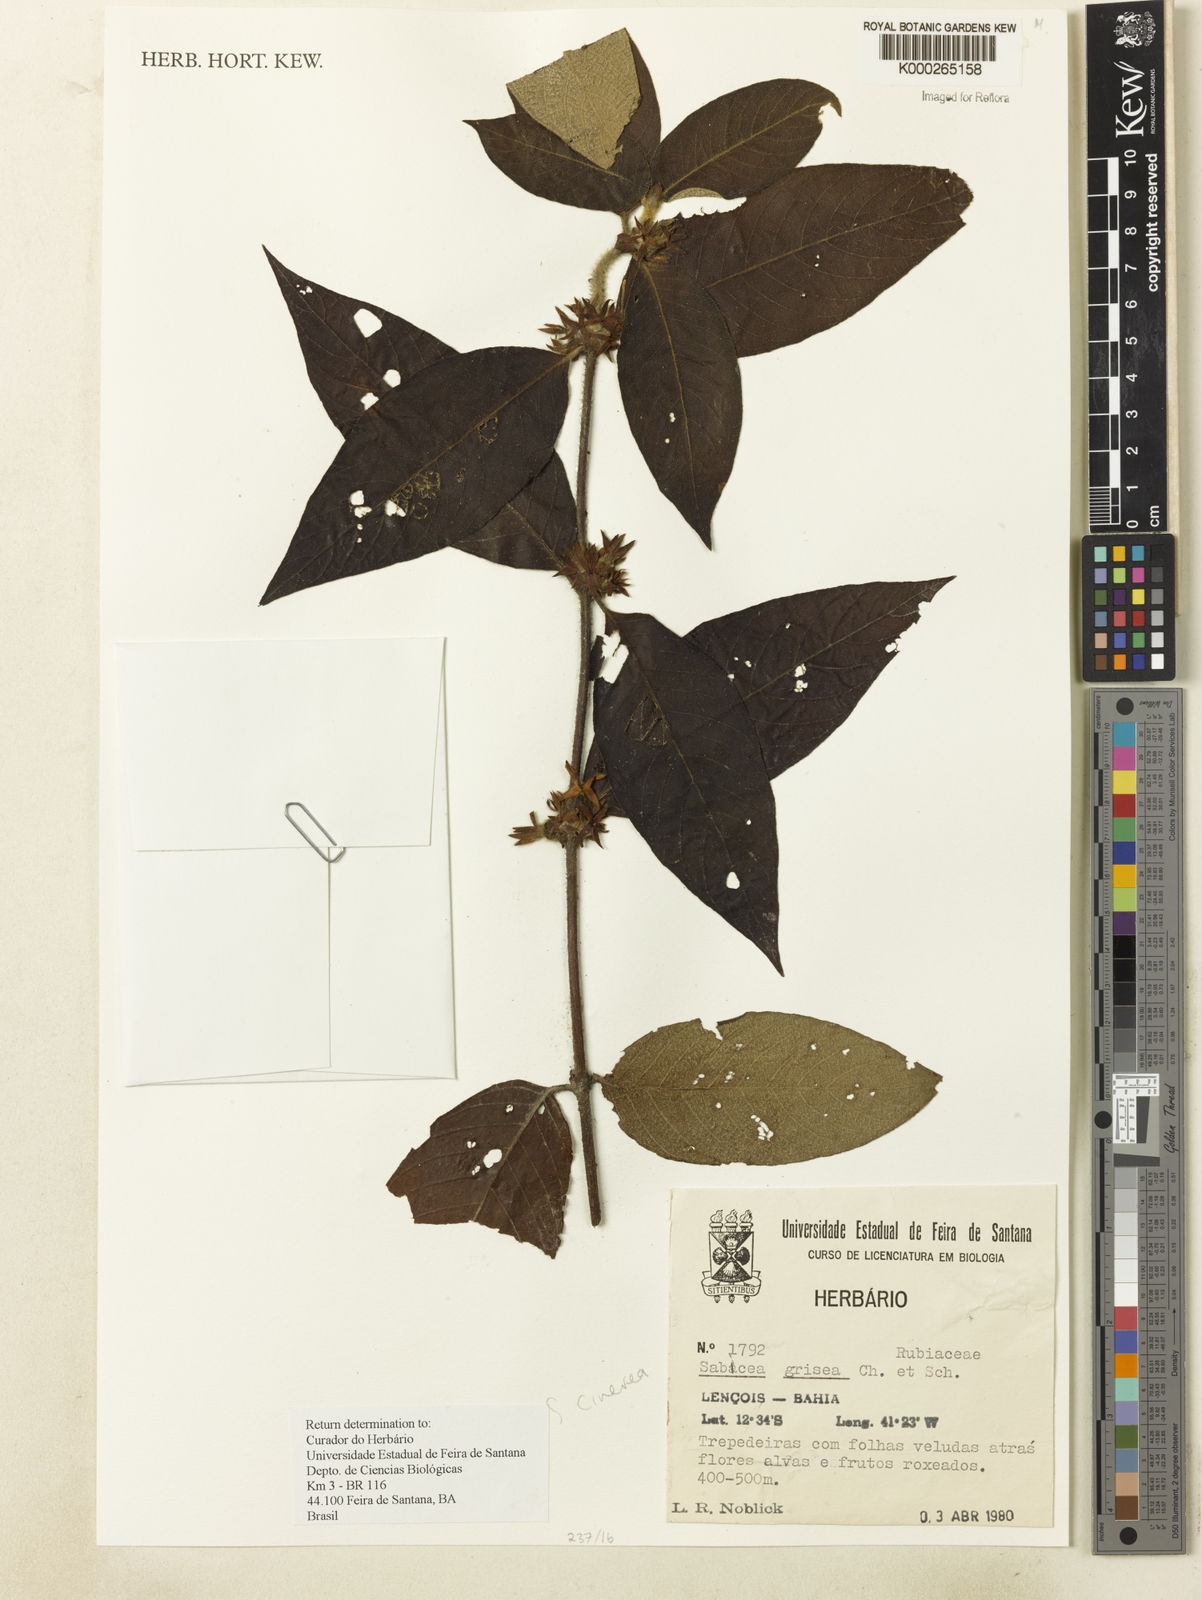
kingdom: Plantae
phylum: Tracheophyta
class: Magnoliopsida
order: Gentianales
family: Rubiaceae
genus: Sabicea
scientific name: Sabicea cinerea
